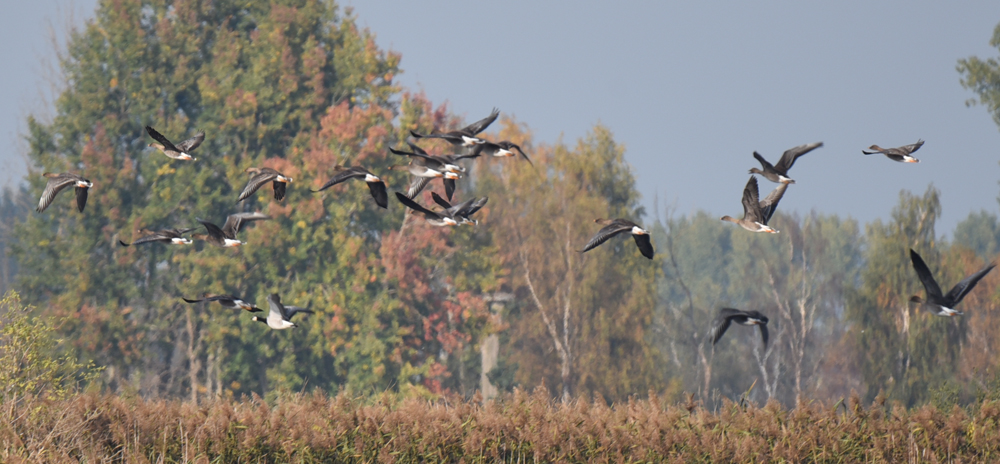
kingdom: Animalia
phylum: Chordata
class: Aves
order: Anseriformes
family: Anatidae
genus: Branta
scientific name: Branta canadensis
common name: Canada goose
